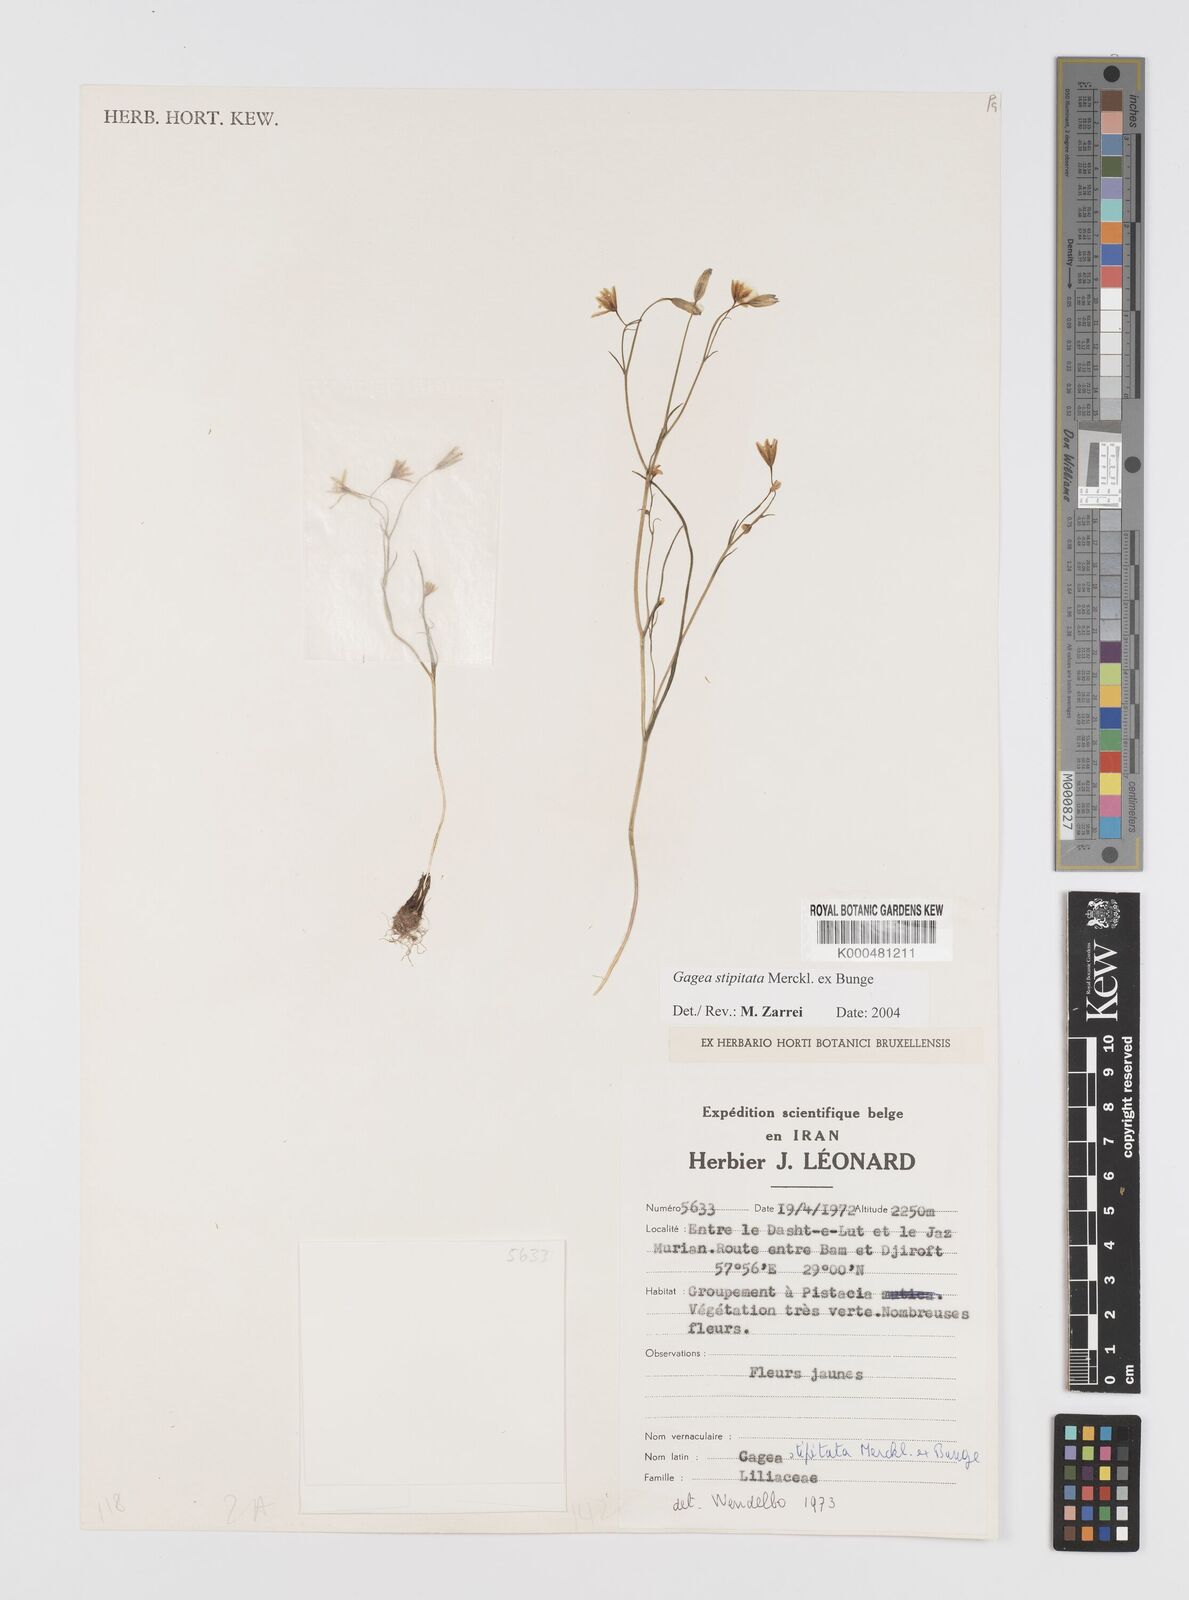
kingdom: Plantae
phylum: Tracheophyta
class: Liliopsida
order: Liliales
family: Liliaceae
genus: Gagea
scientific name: Gagea kunawurensis
